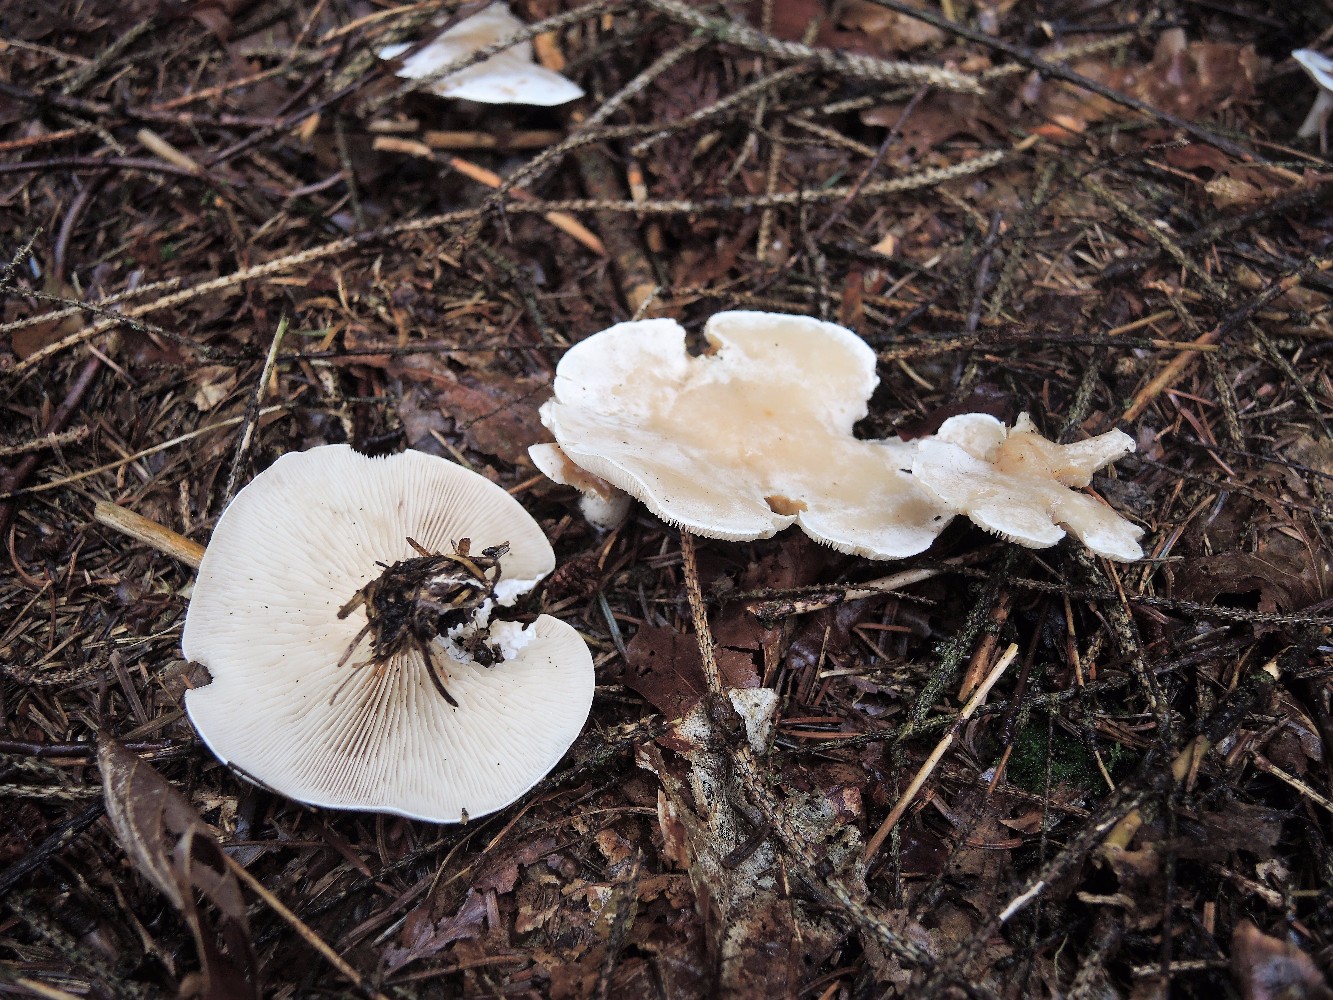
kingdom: Fungi
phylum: Basidiomycota
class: Agaricomycetes
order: Agaricales
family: Tricholomataceae
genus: Clitocybe
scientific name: Clitocybe phyllophila
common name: løv-tragthat
